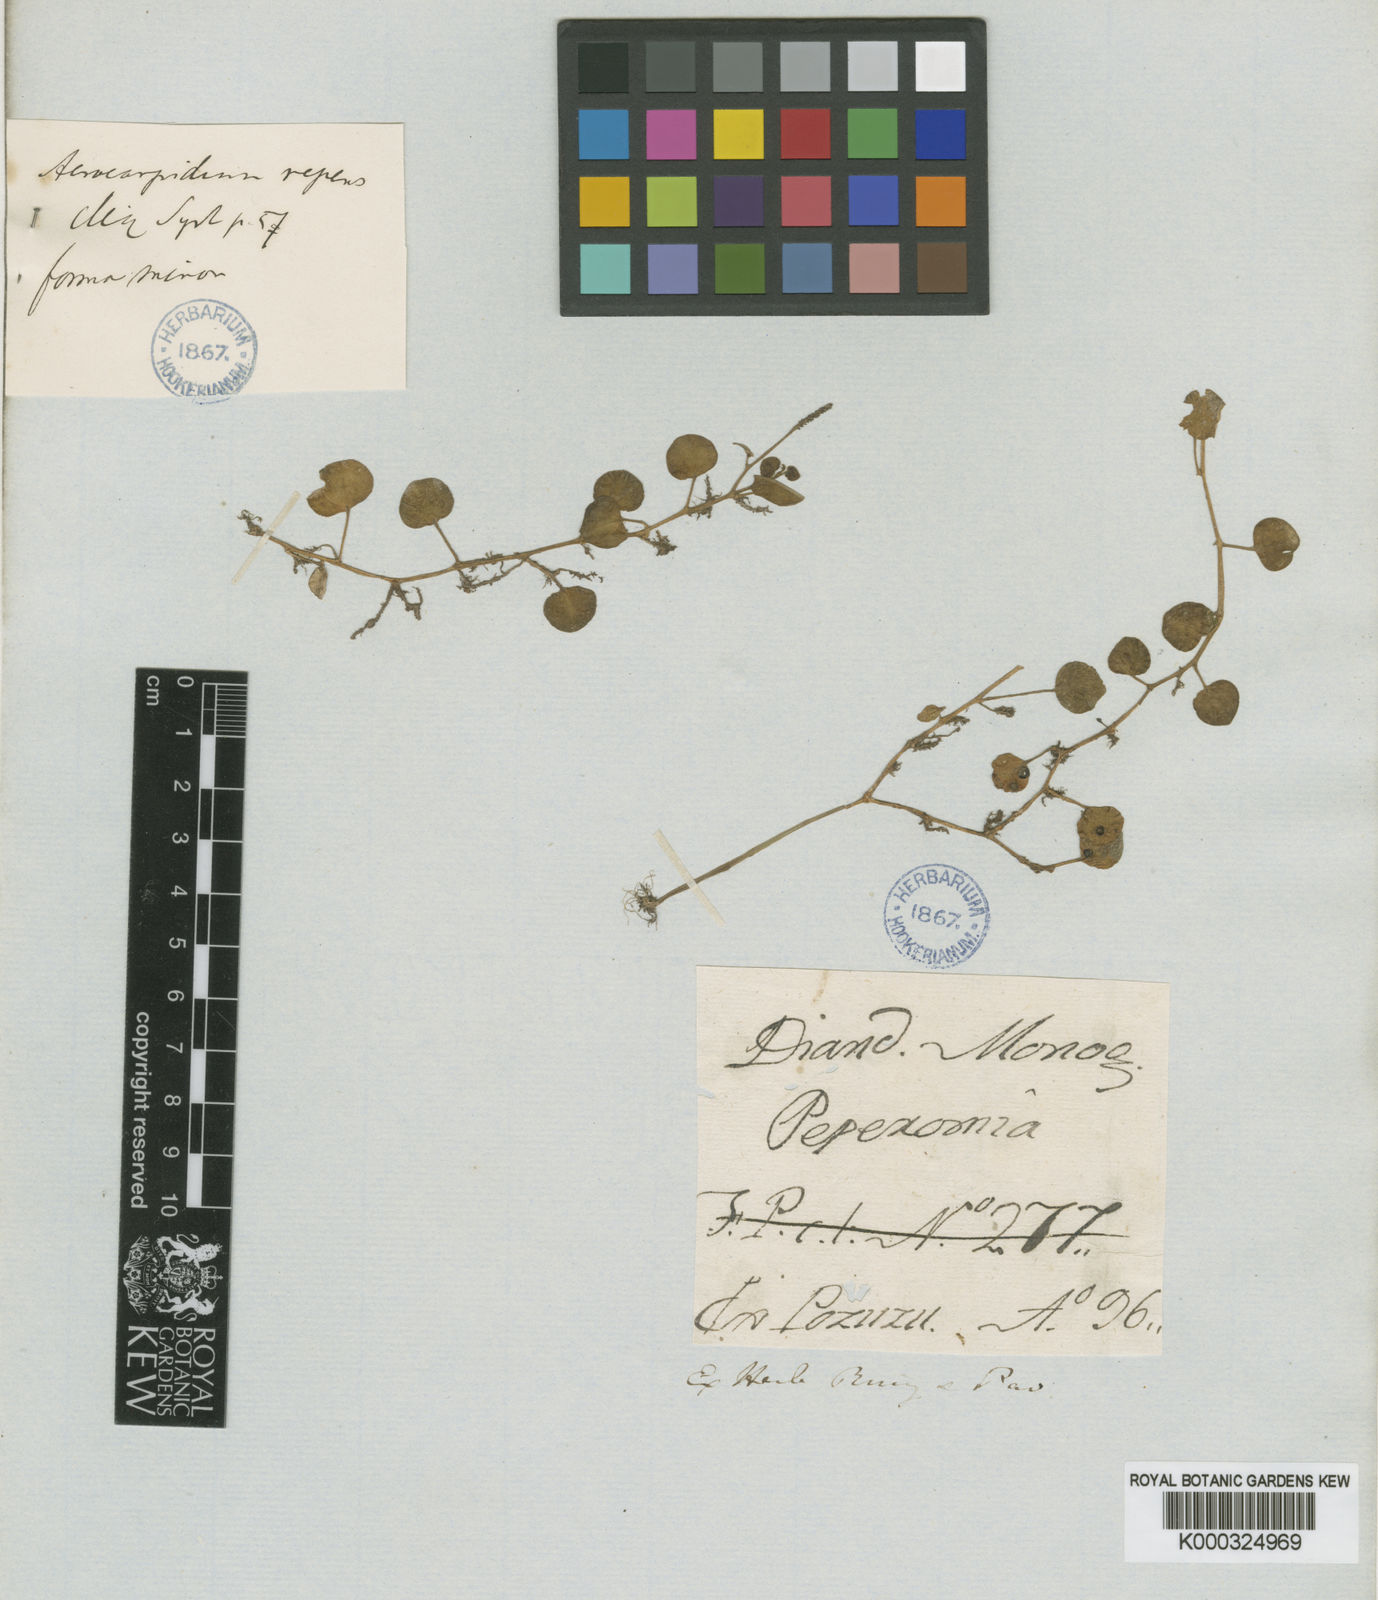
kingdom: Plantae
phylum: Tracheophyta
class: Magnoliopsida
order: Piperales
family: Piperaceae
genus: Peperomia
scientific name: Peperomia serpens
